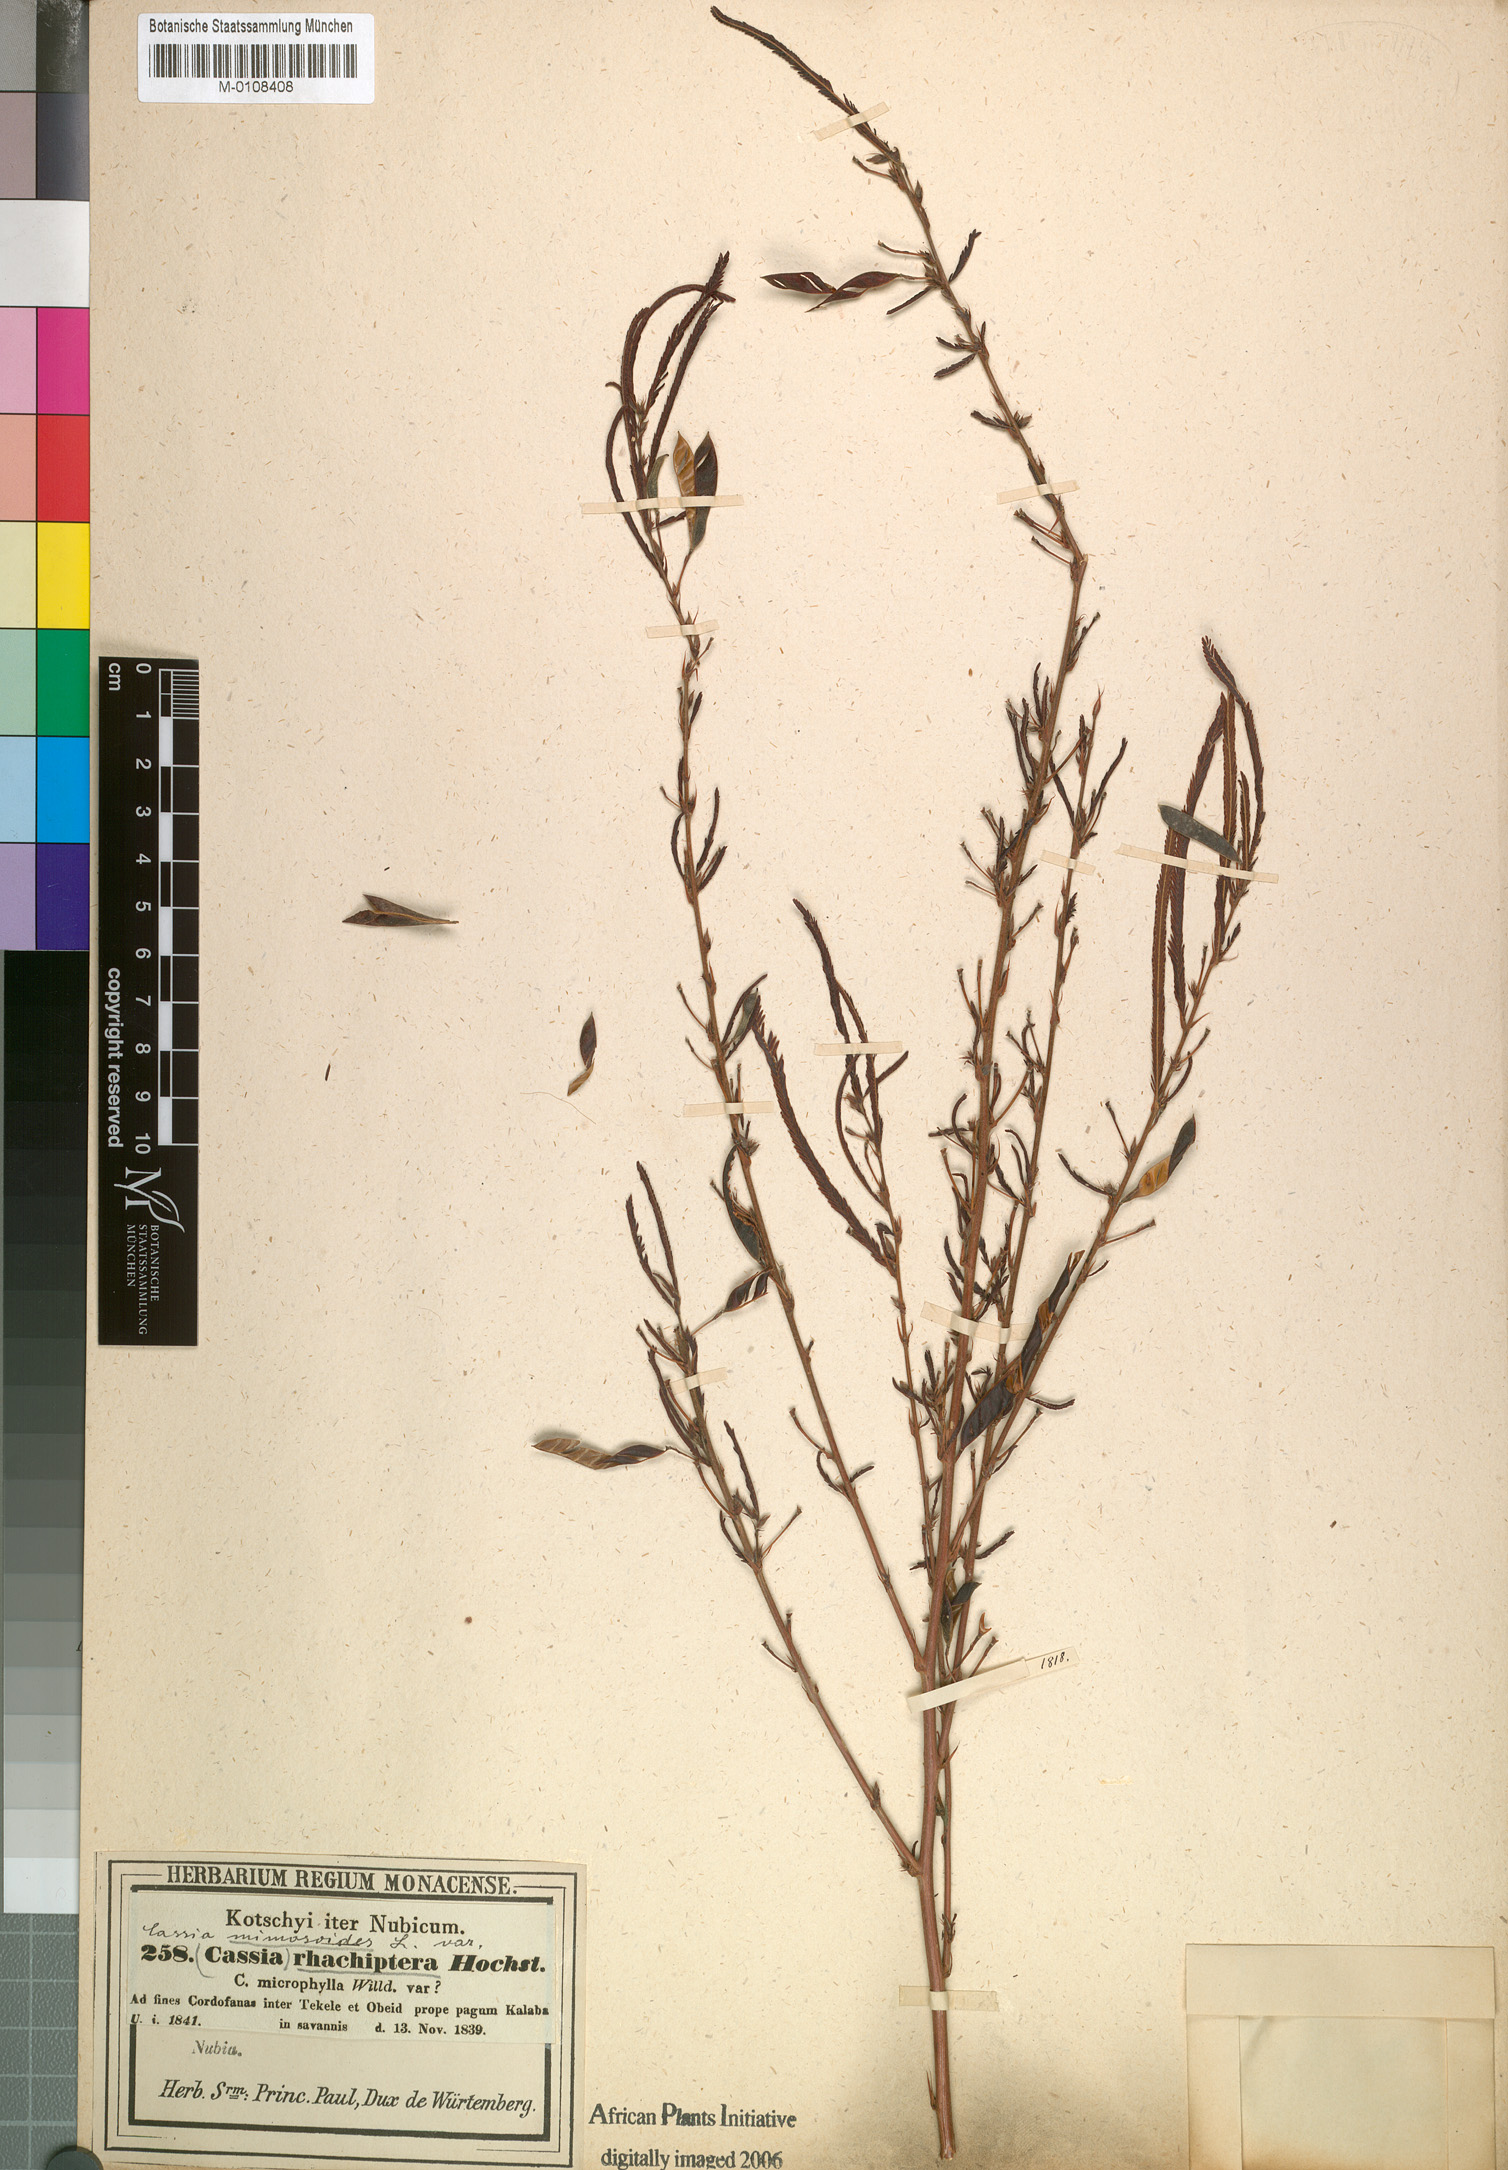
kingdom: Plantae
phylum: Tracheophyta
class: Magnoliopsida
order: Fabales
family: Fabaceae
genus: Chamaecrista
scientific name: Chamaecrista mimosoides
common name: Fish-bone cassia
